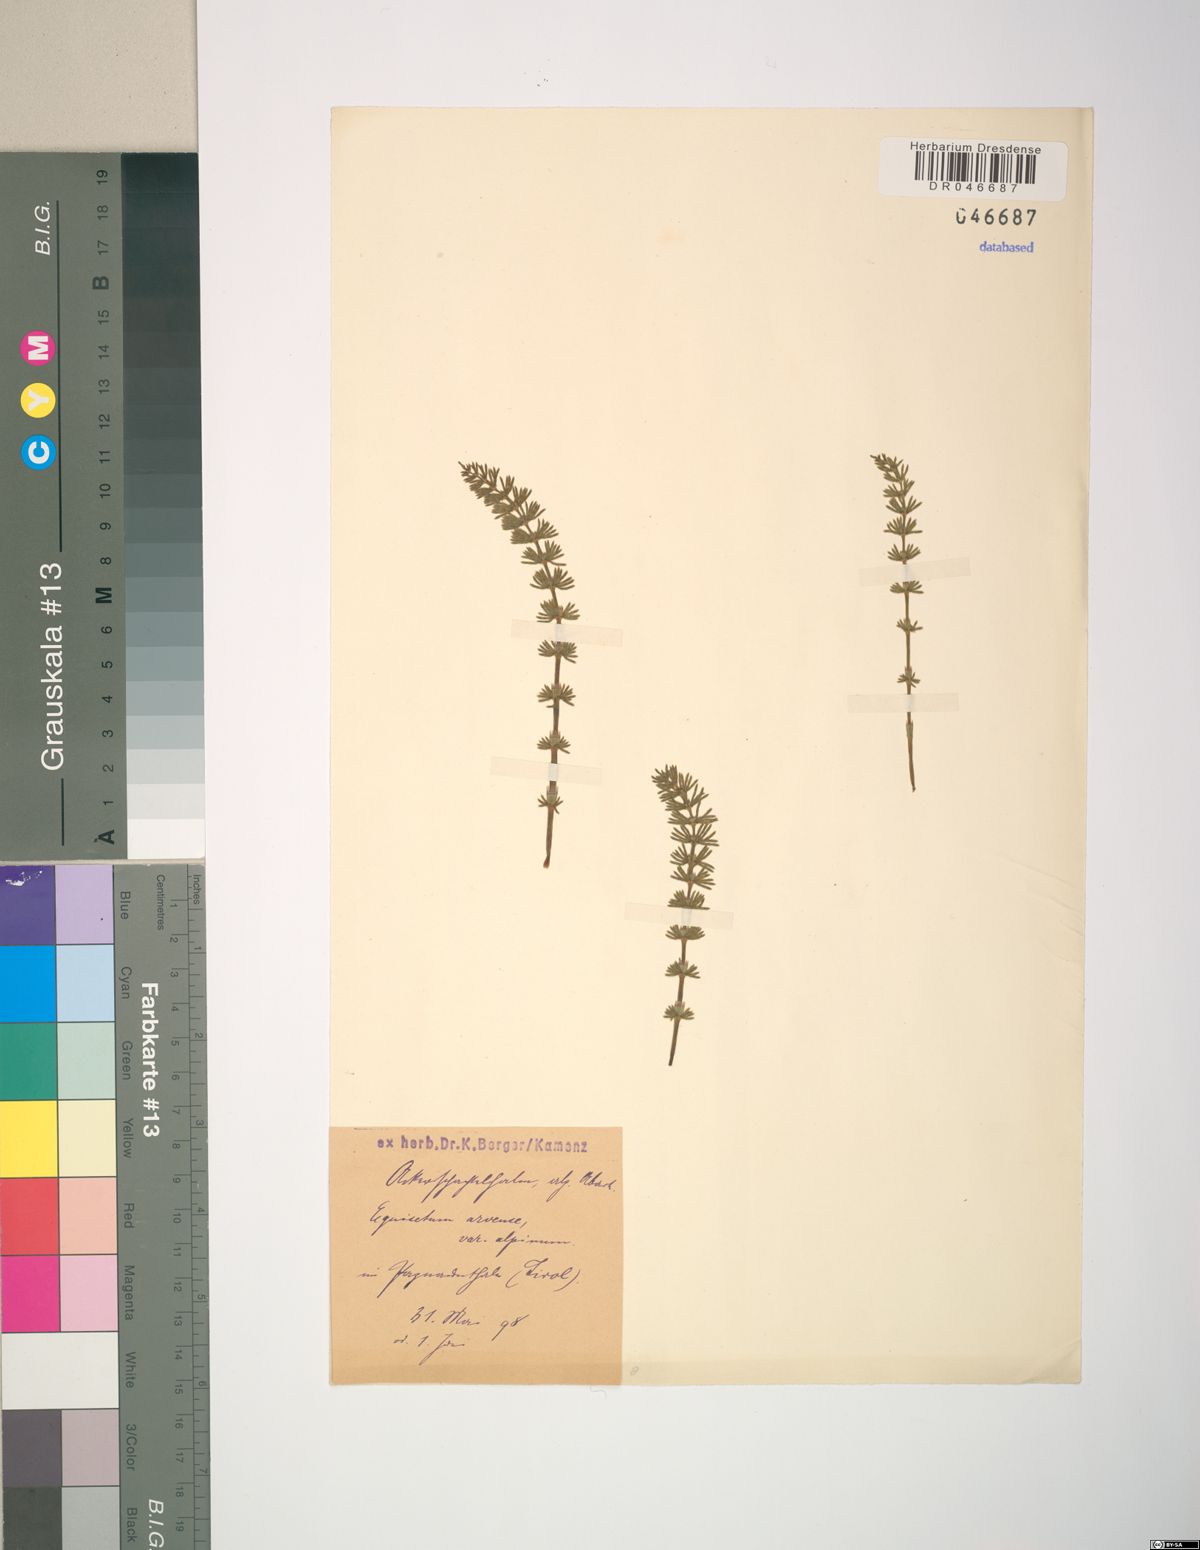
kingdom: Plantae
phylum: Tracheophyta
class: Polypodiopsida
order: Equisetales
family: Equisetaceae
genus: Equisetum
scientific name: Equisetum arvense
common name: Field horsetail
